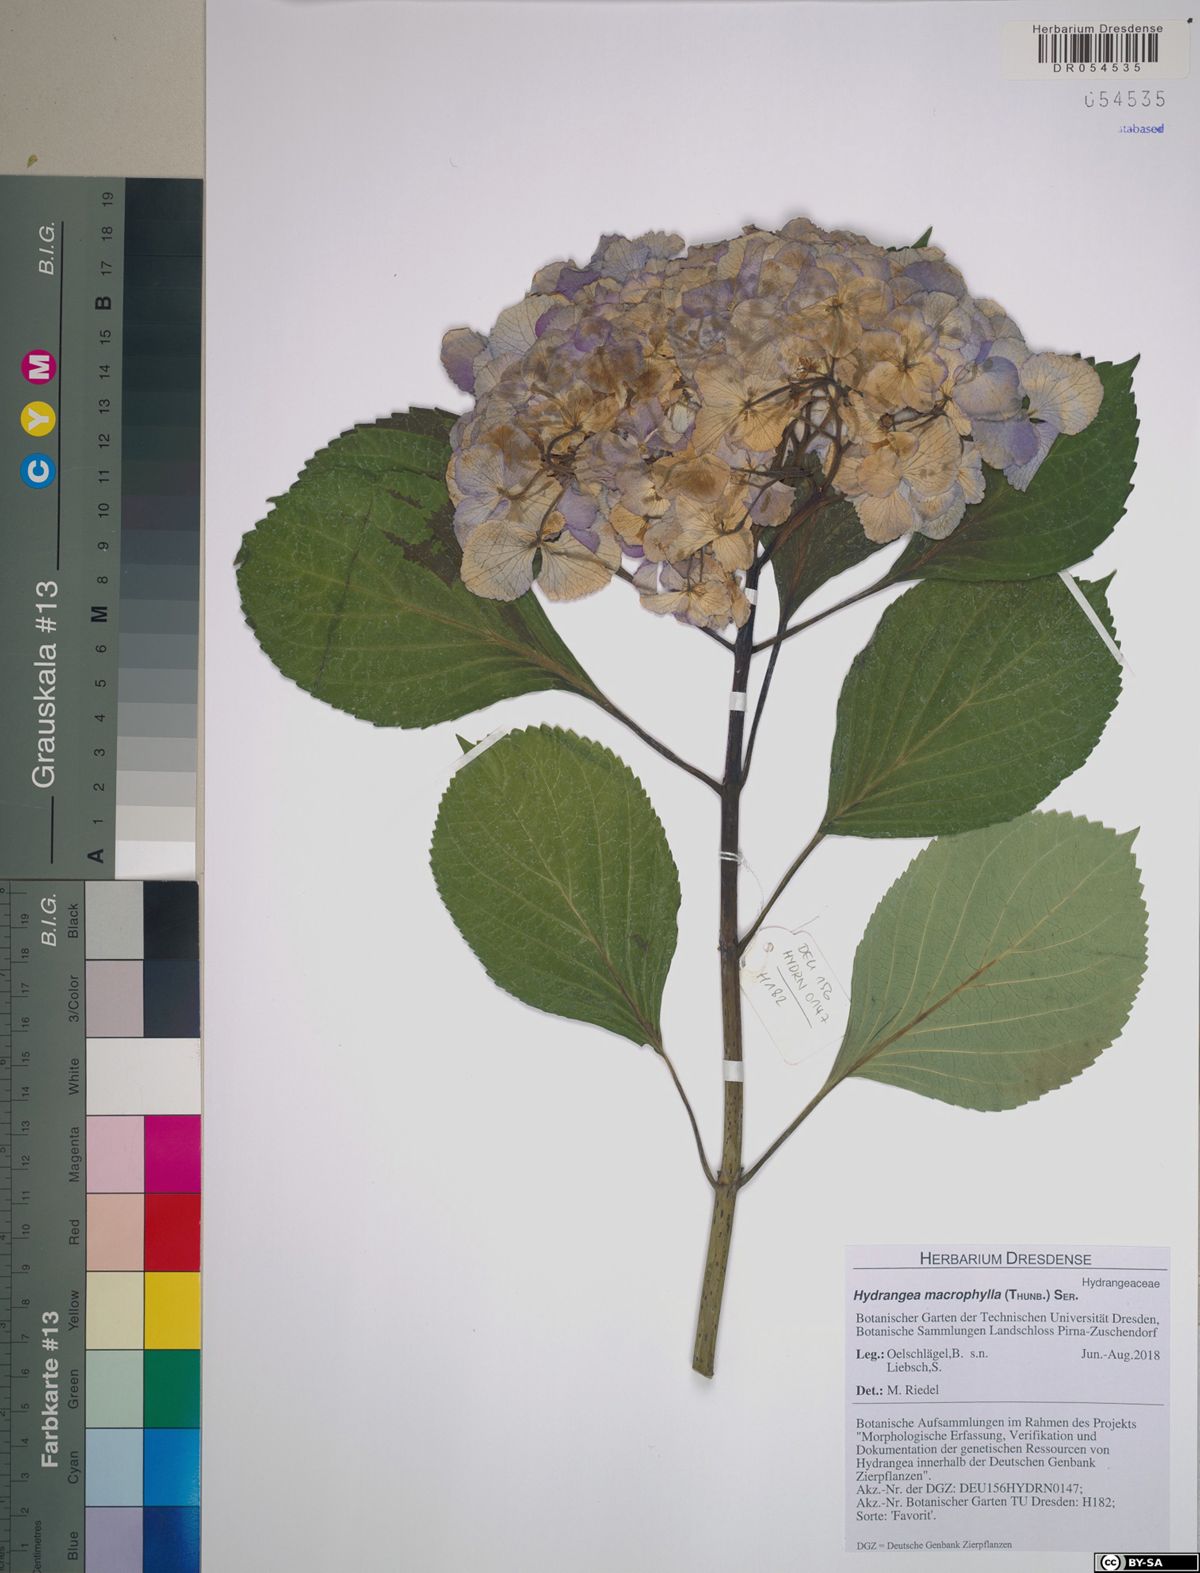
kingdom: Plantae
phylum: Tracheophyta
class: Magnoliopsida
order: Cornales
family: Hydrangeaceae
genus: Hydrangea
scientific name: Hydrangea macrophylla
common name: Hydrangea
